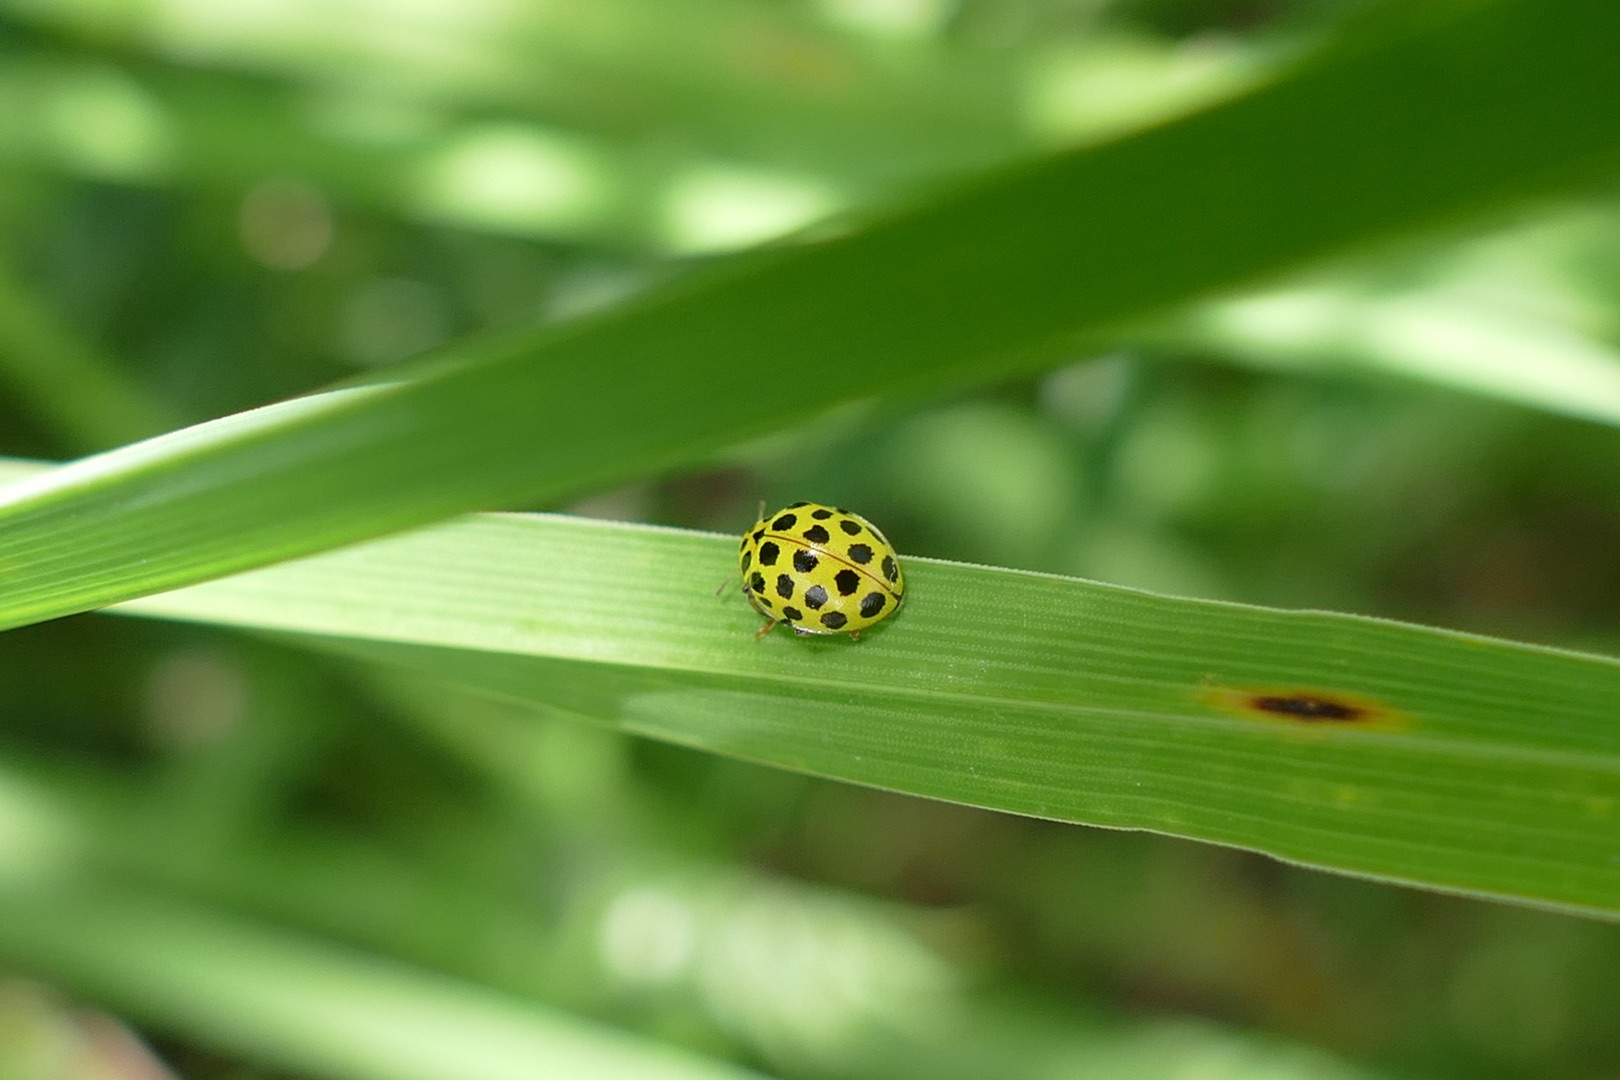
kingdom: Animalia
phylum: Arthropoda
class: Insecta
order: Coleoptera
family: Coccinellidae
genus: Psyllobora
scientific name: Psyllobora vigintiduopunctata
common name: Toogtyveplettet mariehøne
